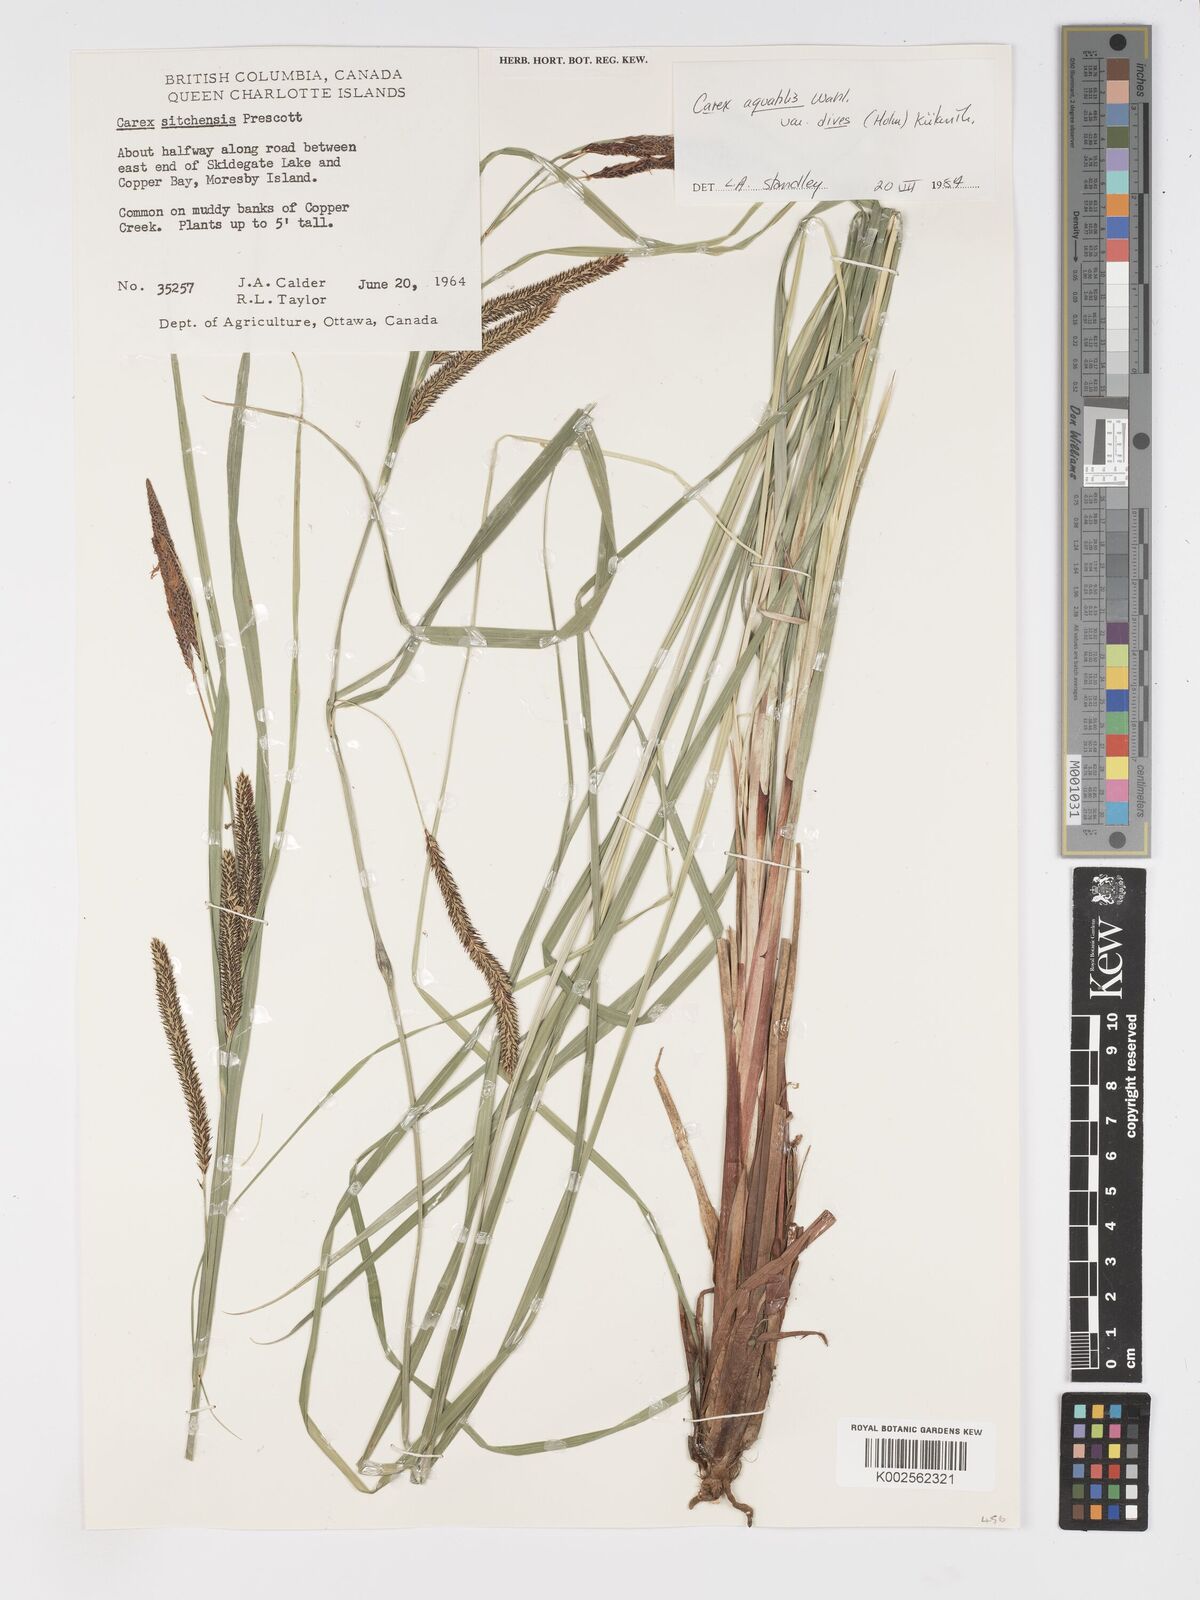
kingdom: Plantae
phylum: Tracheophyta
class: Liliopsida
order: Poales
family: Cyperaceae
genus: Carex
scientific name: Carex aquatilis
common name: Water sedge
